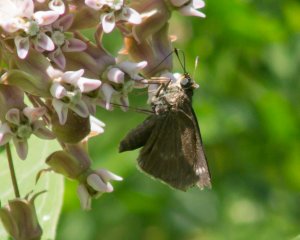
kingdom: Animalia
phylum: Arthropoda
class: Insecta
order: Lepidoptera
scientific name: Lepidoptera
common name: Butterflies
